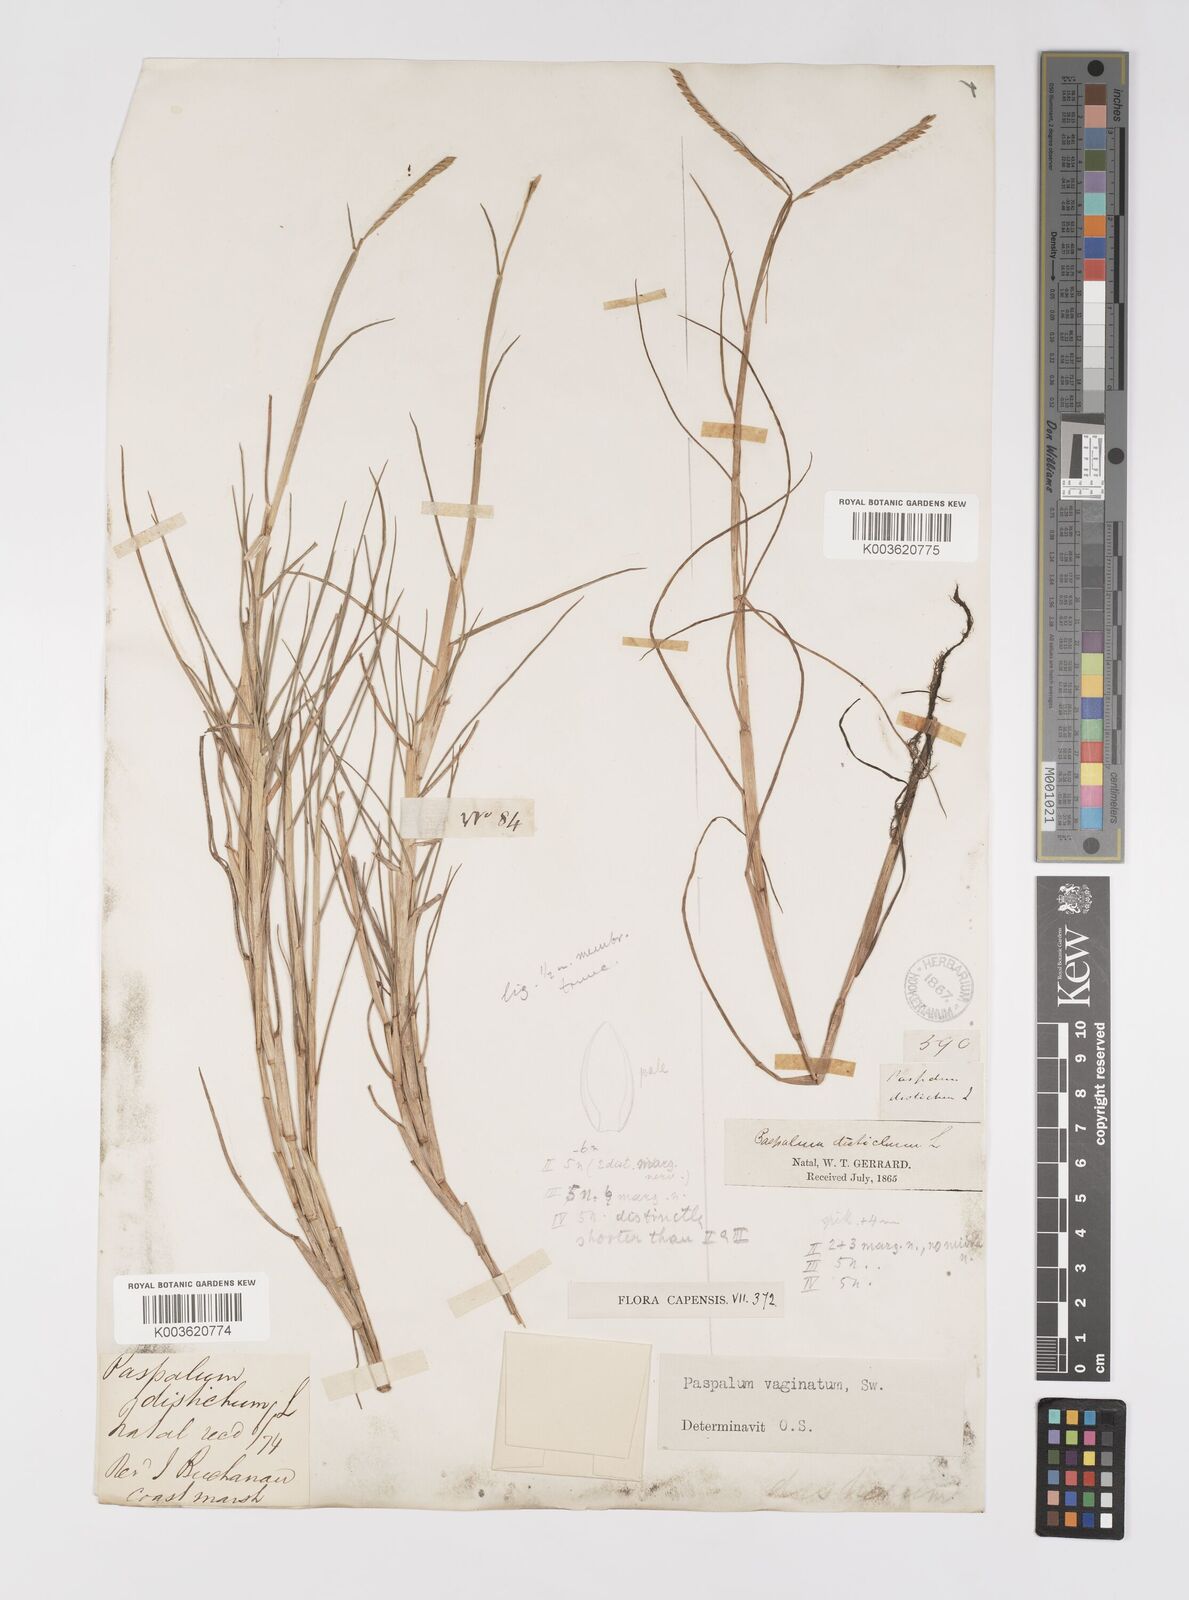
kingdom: Plantae
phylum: Tracheophyta
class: Liliopsida
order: Poales
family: Poaceae
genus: Paspalum
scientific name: Paspalum vaginatum
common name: Seashore paspalum
